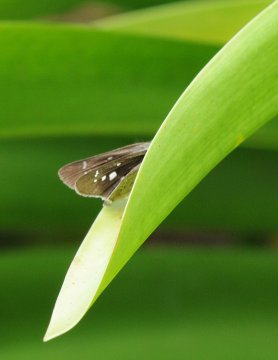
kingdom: Animalia
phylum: Arthropoda
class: Insecta
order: Lepidoptera
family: Hesperiidae
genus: Borbo
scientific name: Borbo borbonica
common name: Zeller's Skipper
